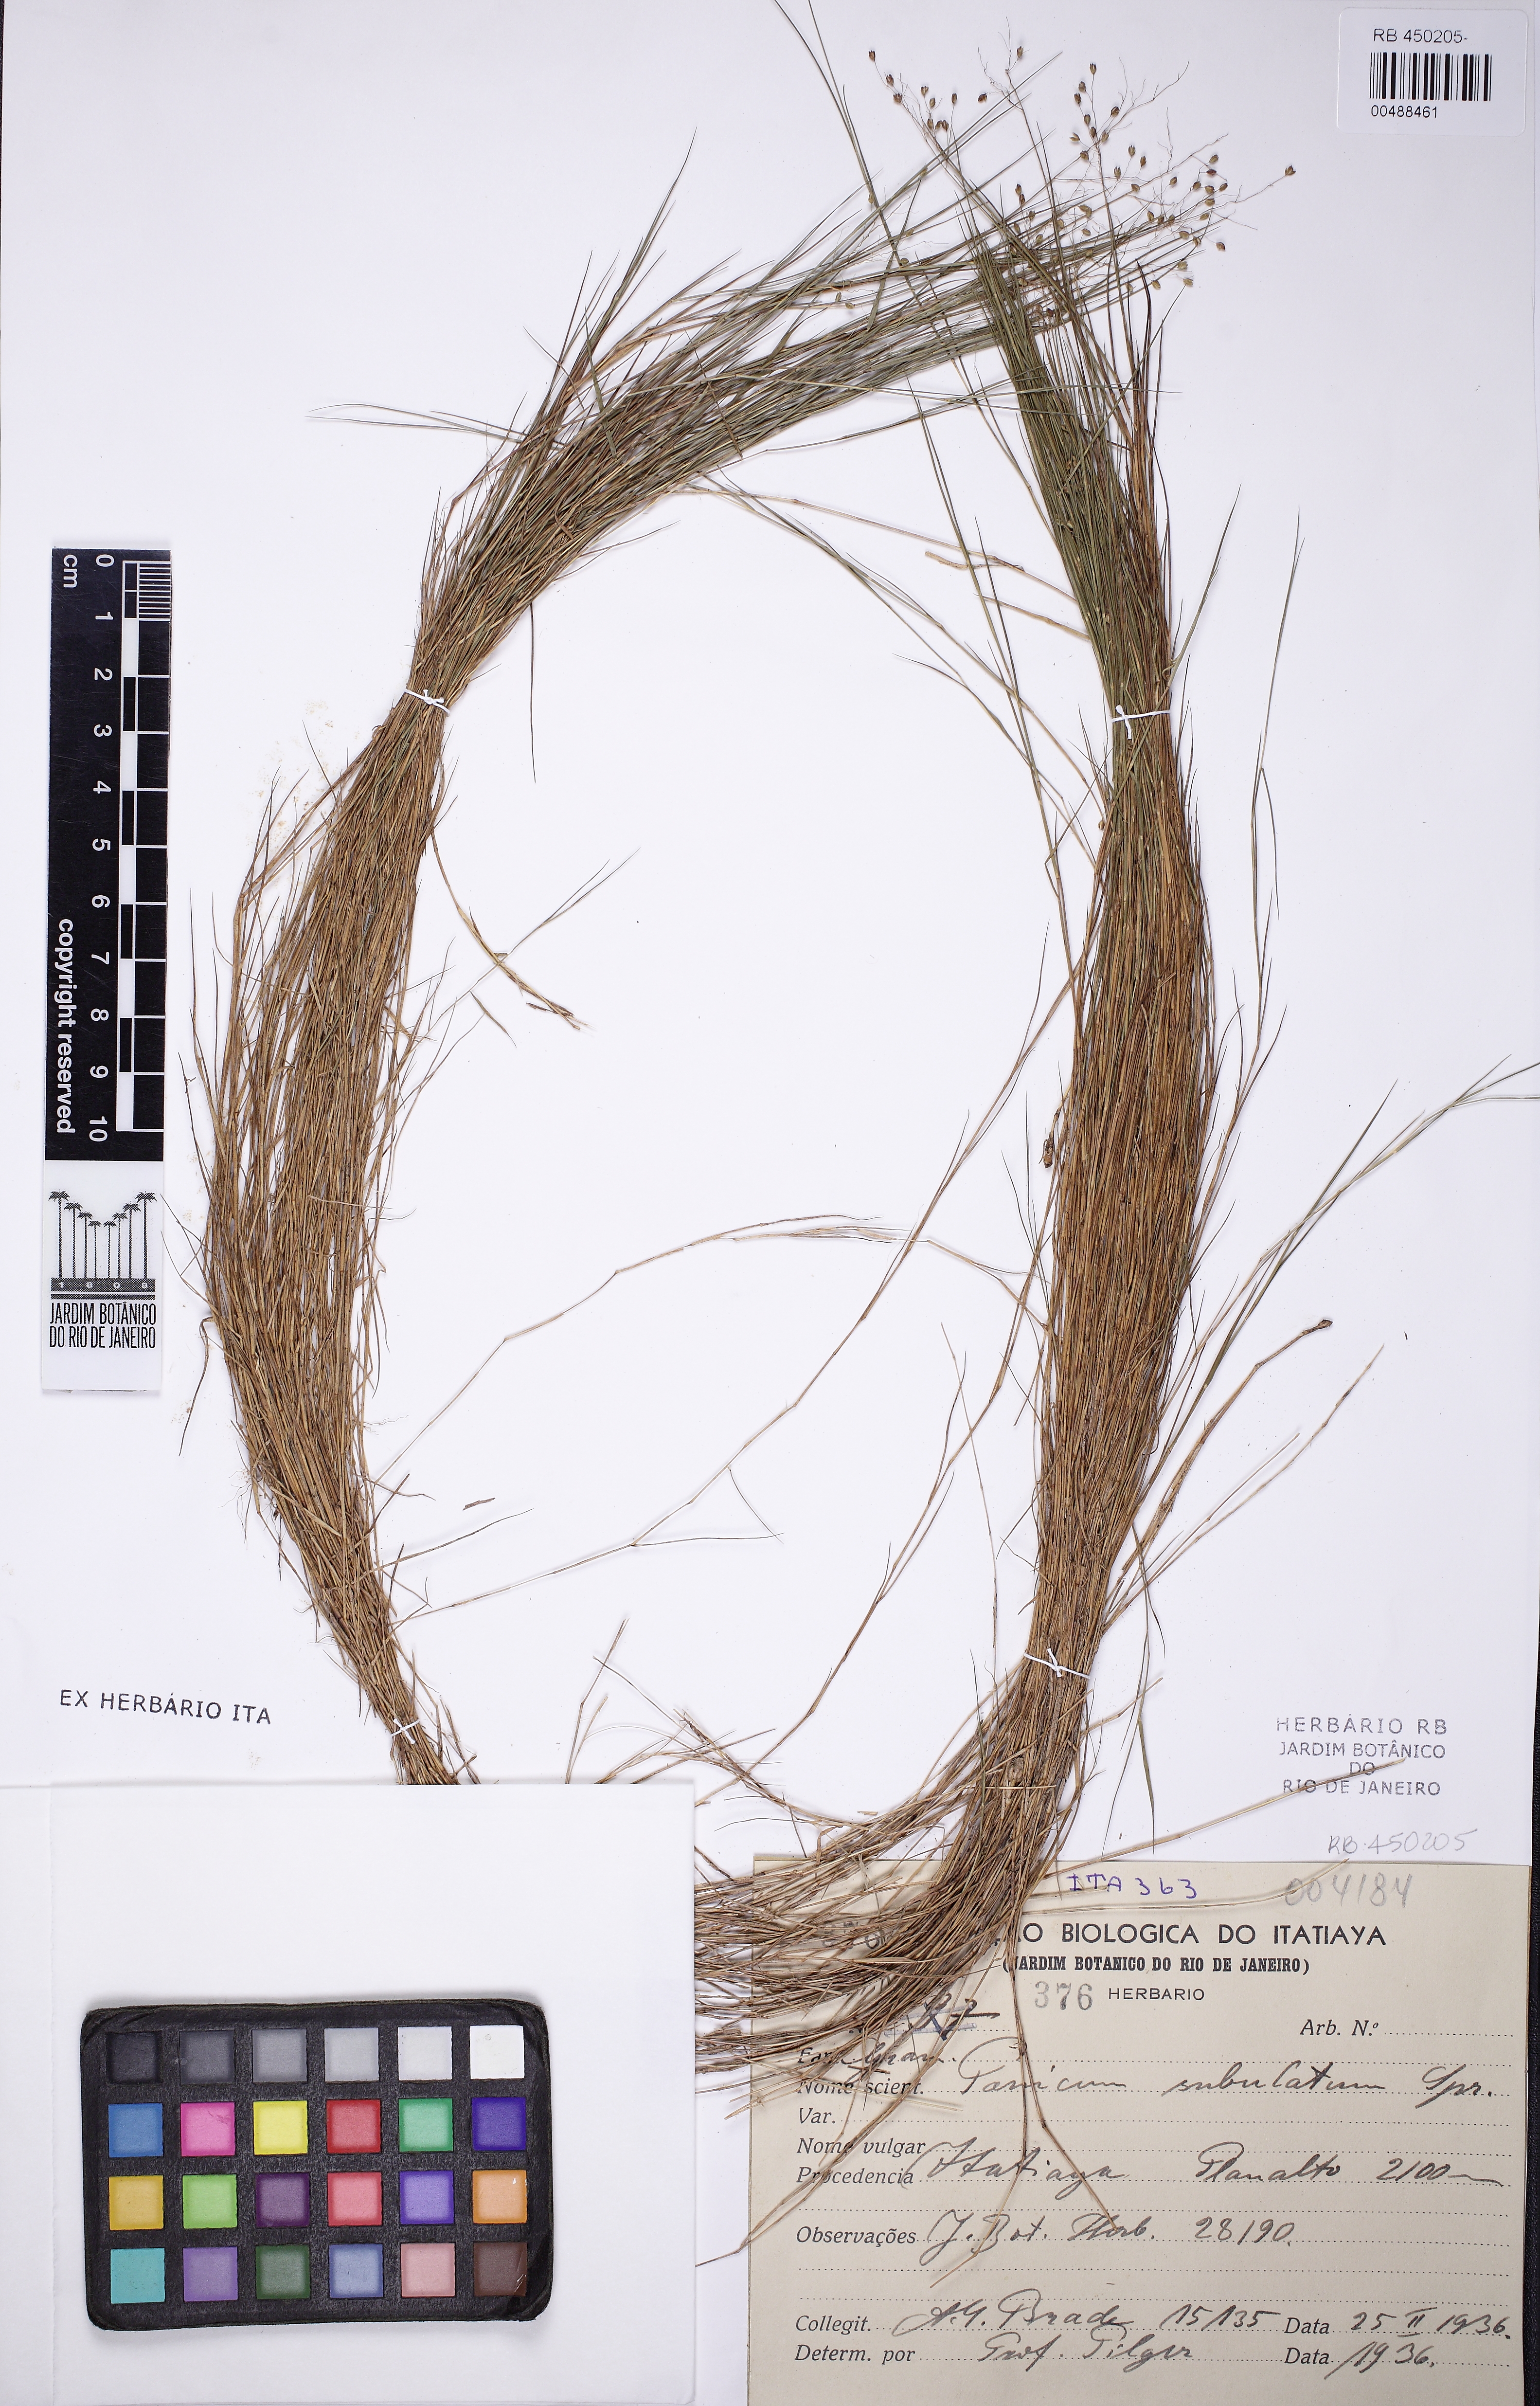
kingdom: Plantae
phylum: Tracheophyta
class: Liliopsida
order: Poales
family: Poaceae
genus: Trichanthecium
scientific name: Trichanthecium distichophyllum
